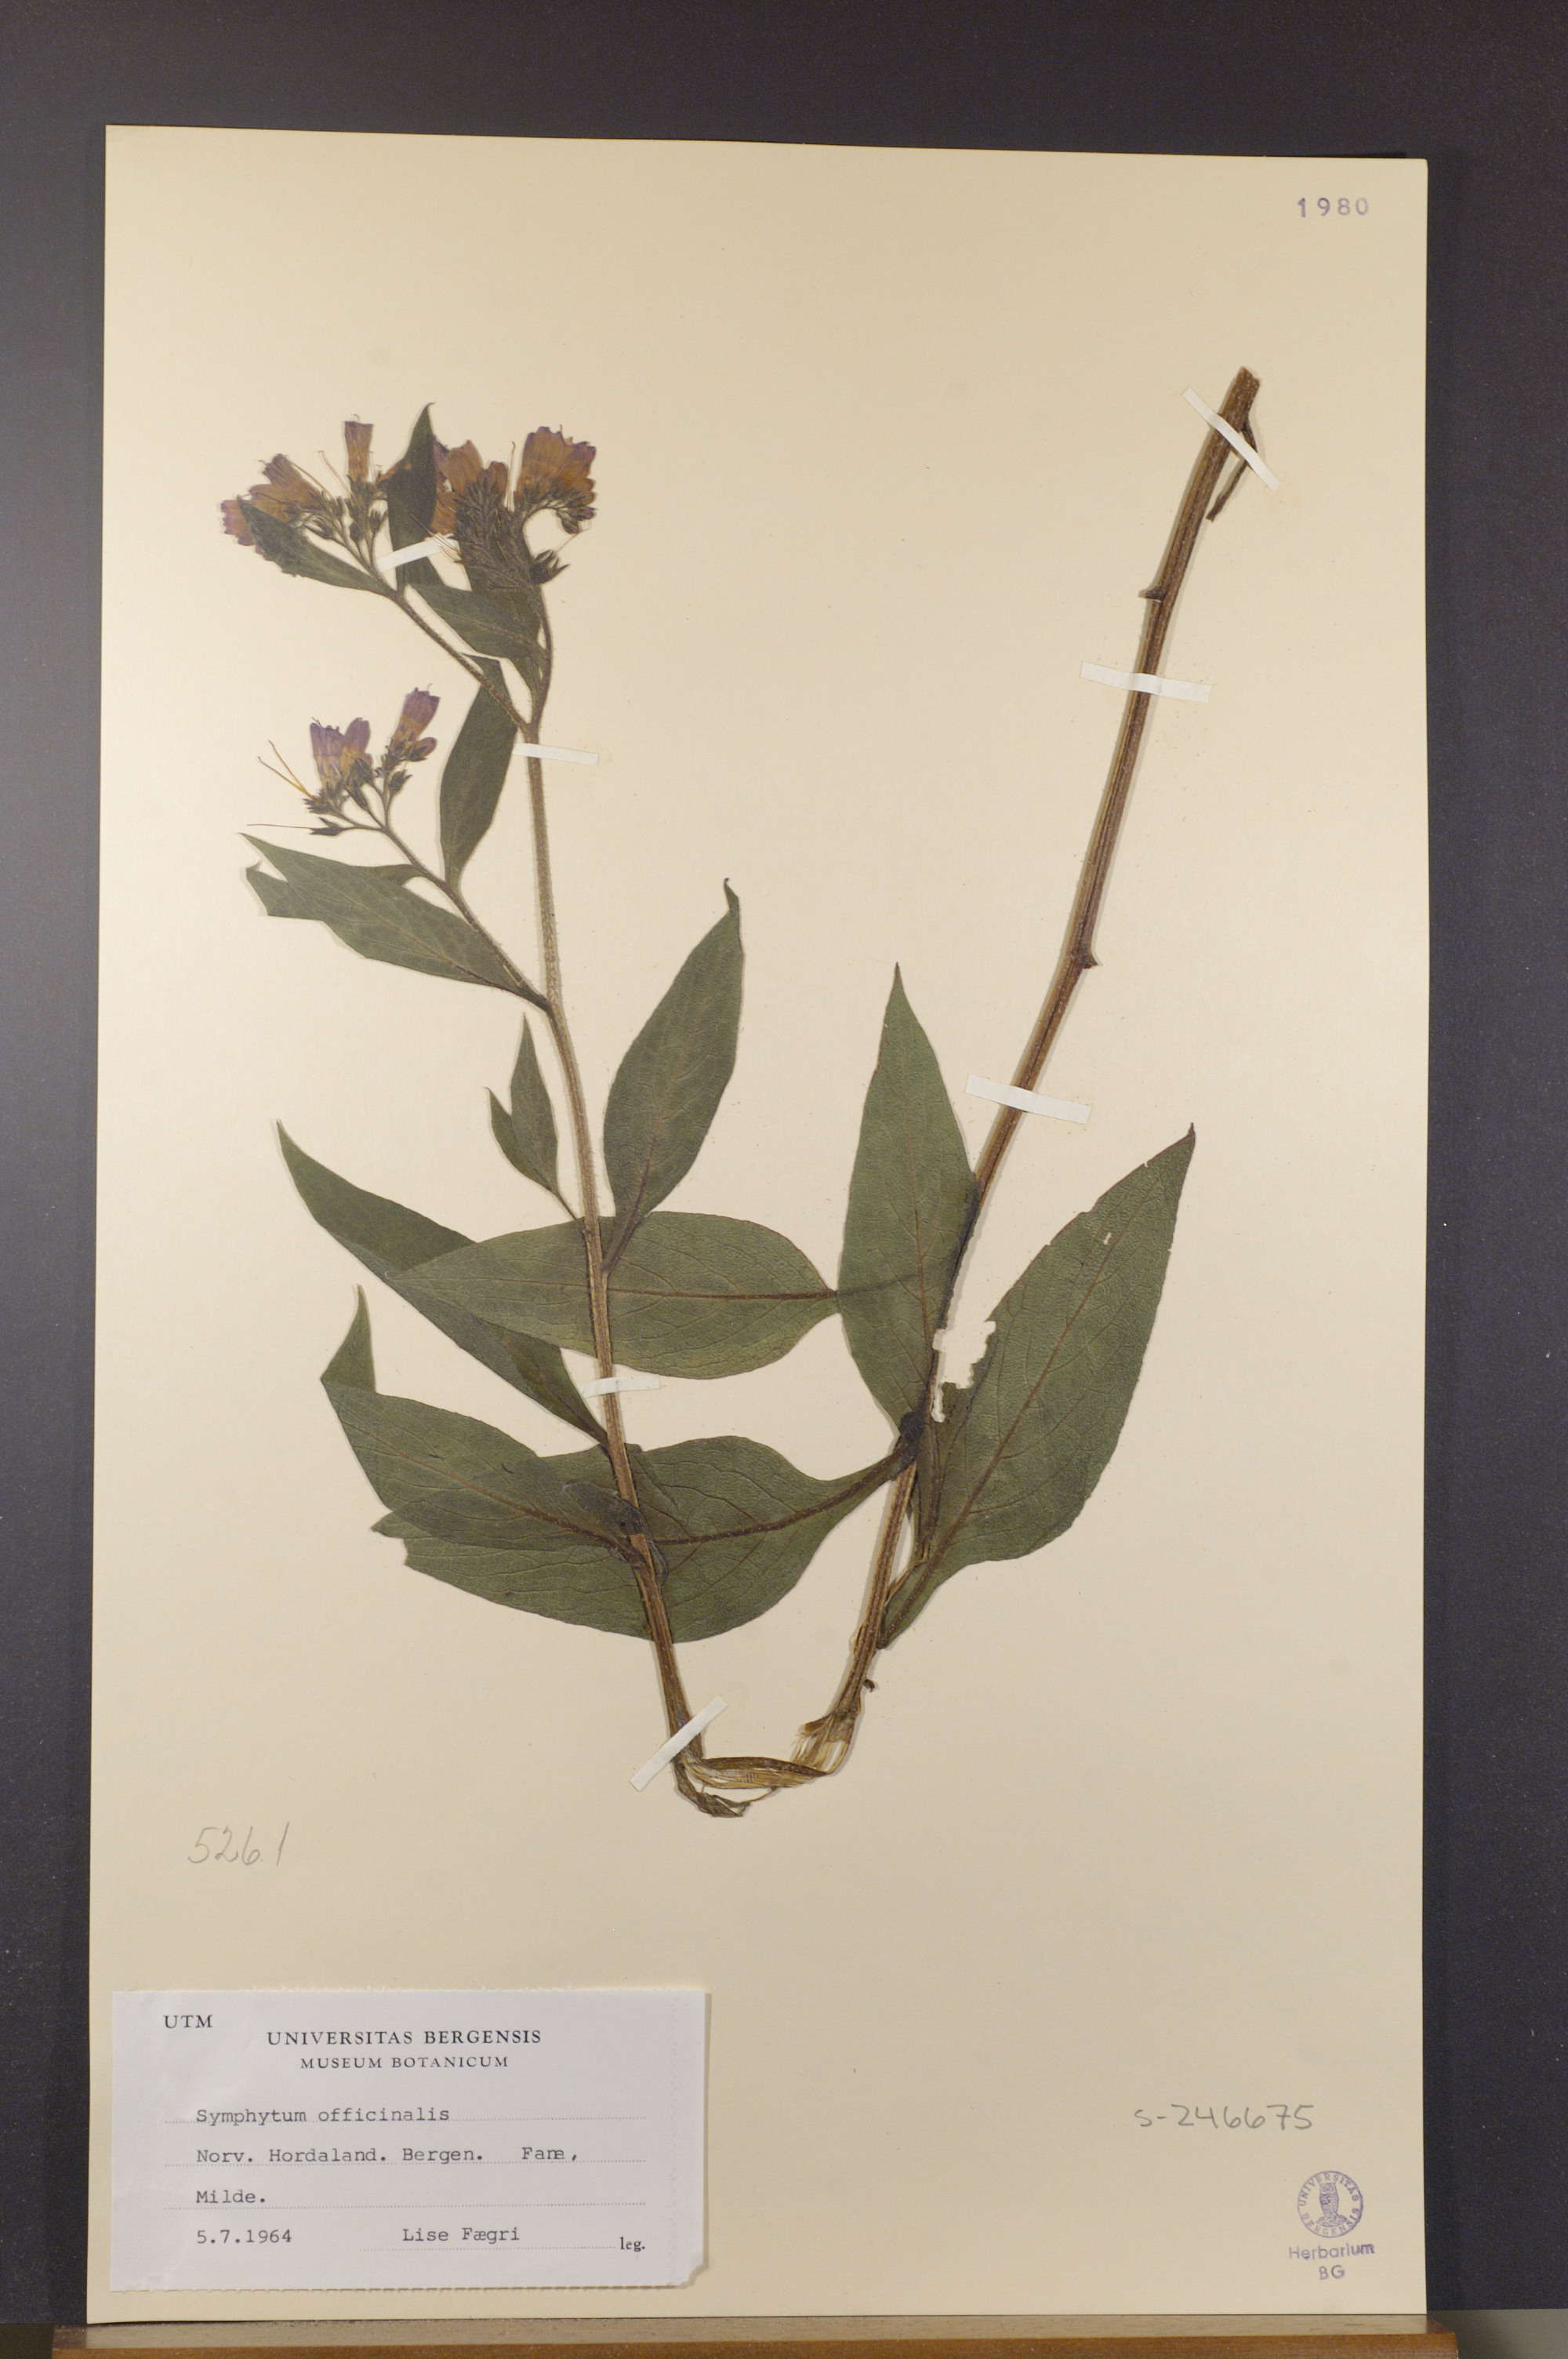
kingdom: Plantae
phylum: Tracheophyta
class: Magnoliopsida
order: Boraginales
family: Boraginaceae
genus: Symphytum
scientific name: Symphytum officinale
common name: Common comfrey
